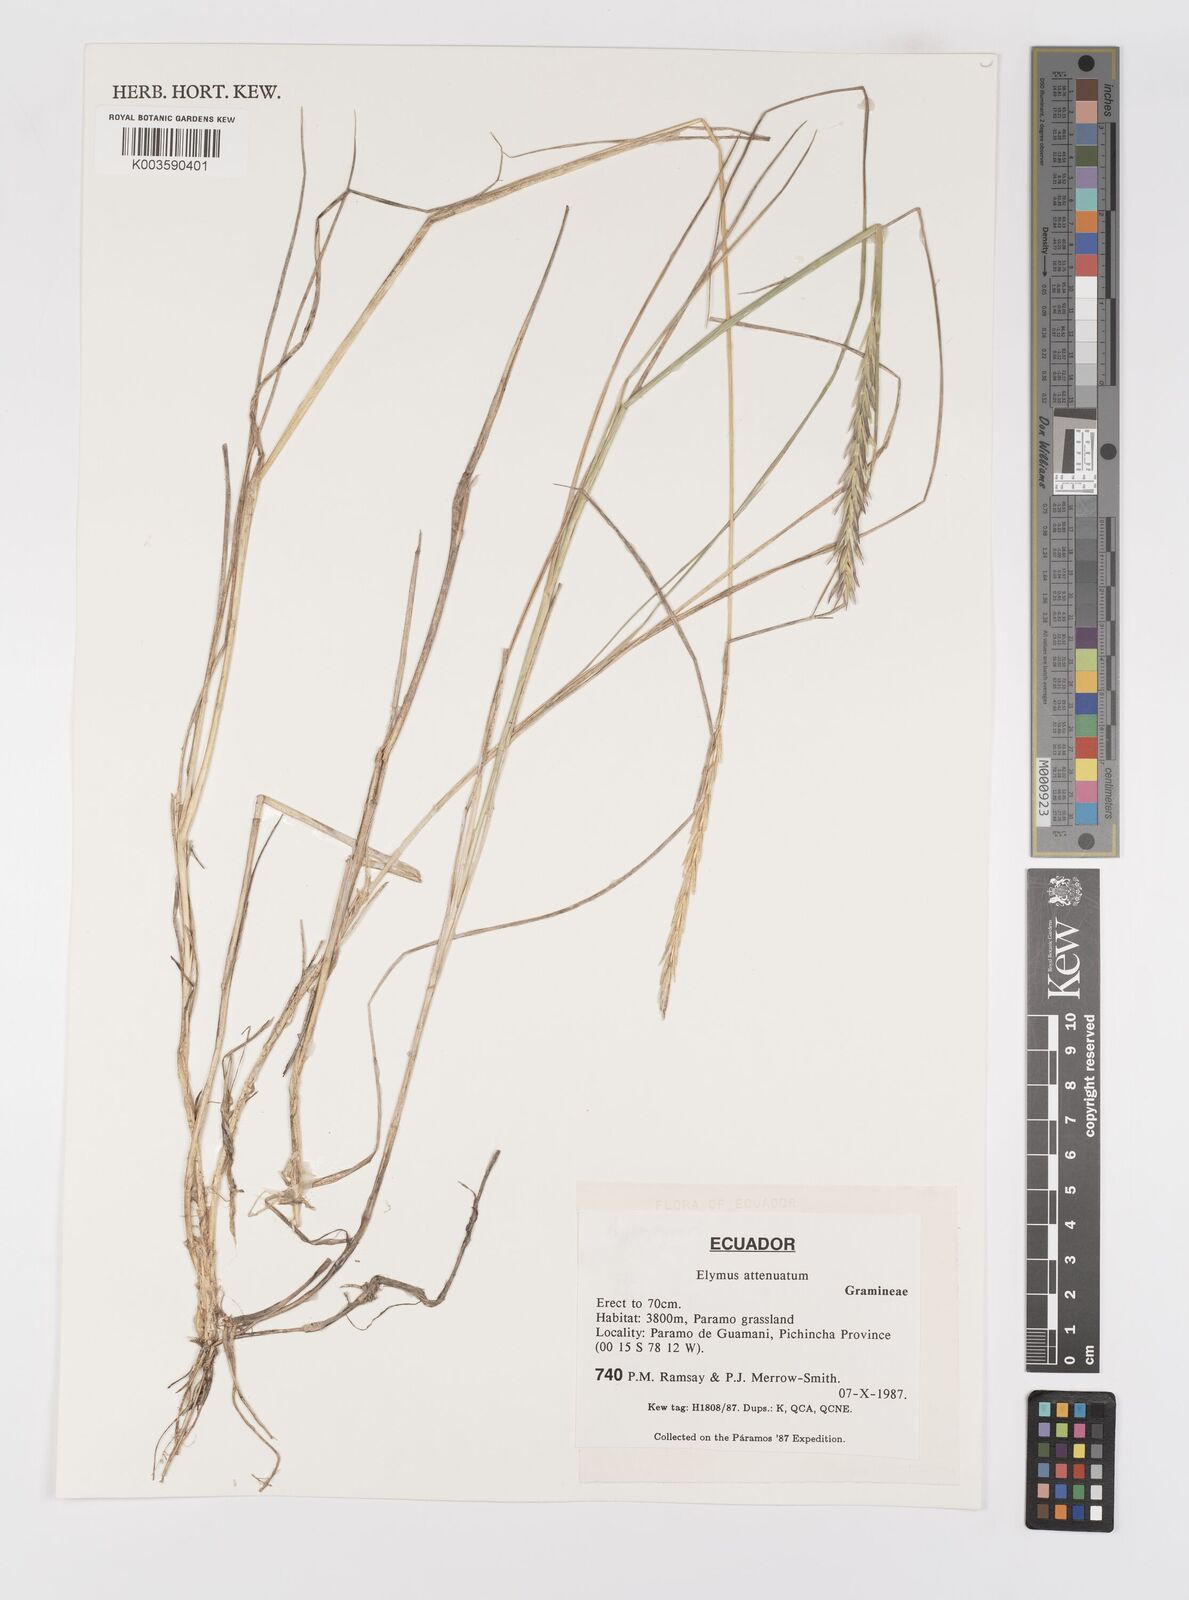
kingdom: Plantae
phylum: Tracheophyta
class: Liliopsida
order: Poales
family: Poaceae
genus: Elymus
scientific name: Elymus cordilleranus
